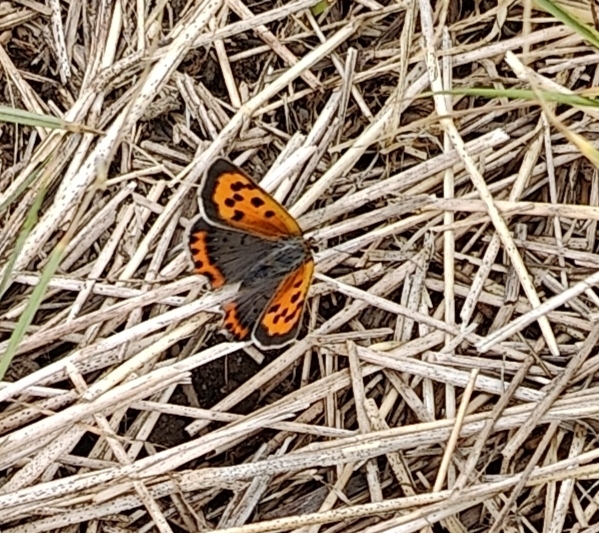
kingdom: Animalia
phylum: Arthropoda
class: Insecta
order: Lepidoptera
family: Lycaenidae
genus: Lycaena
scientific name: Lycaena phlaeas
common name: Lille ildfugl
